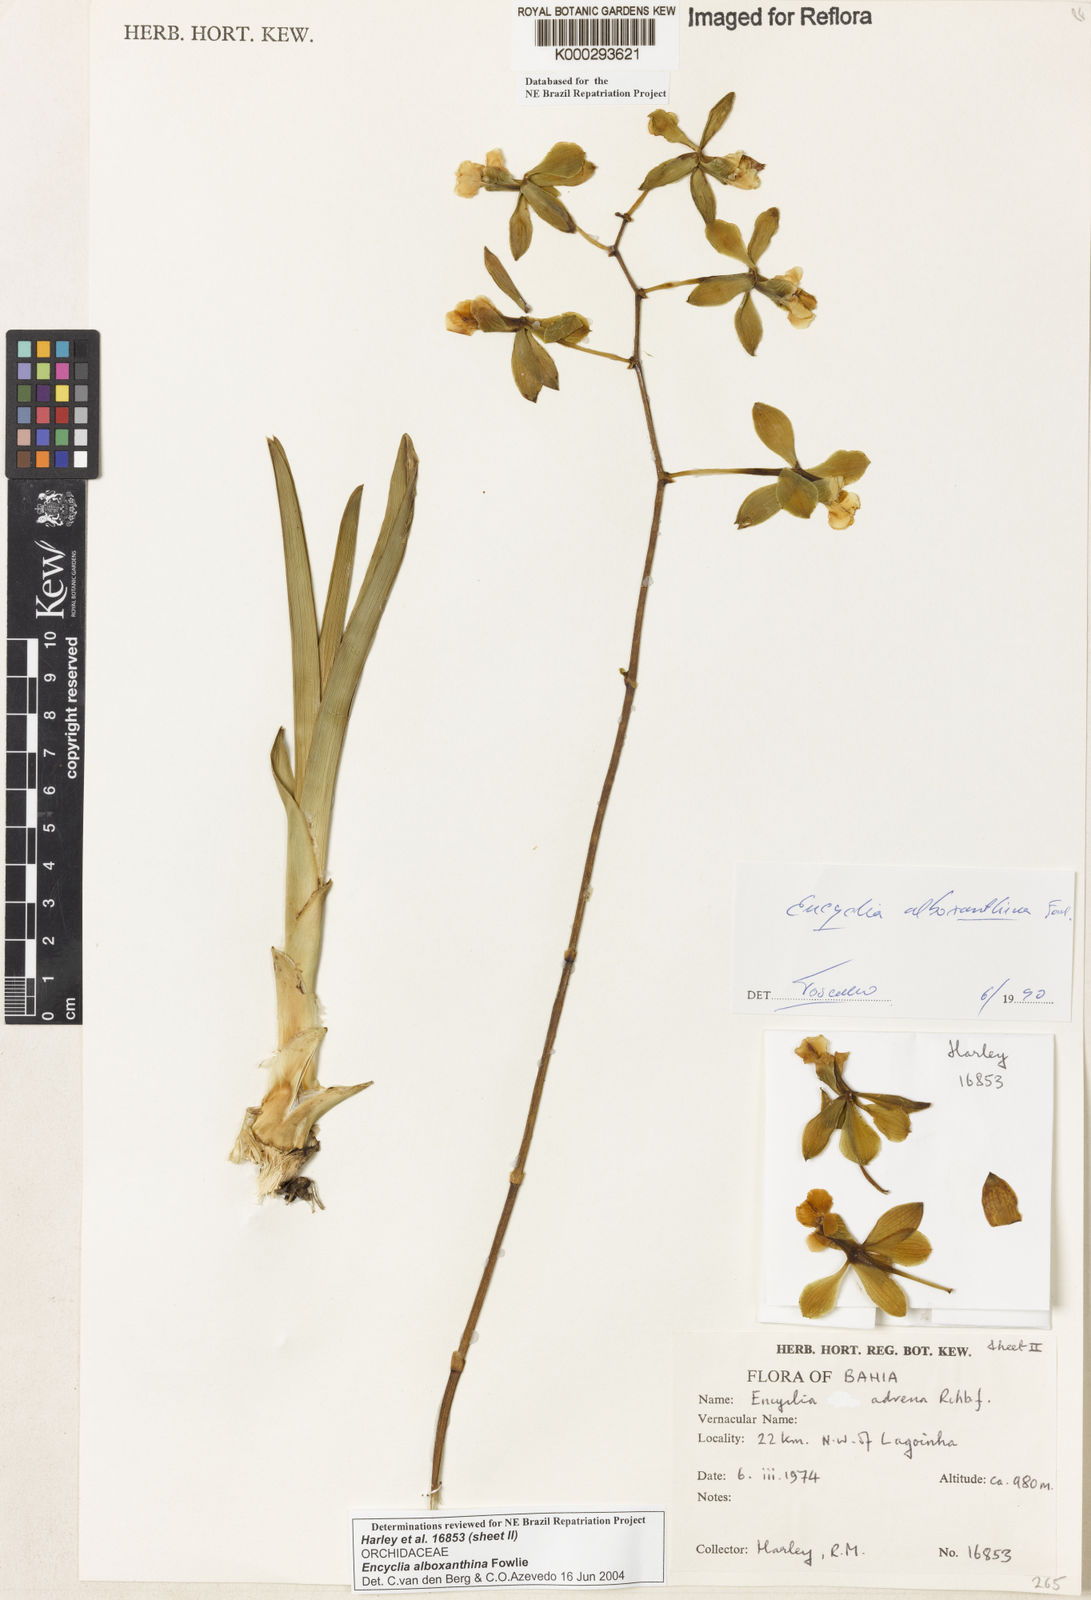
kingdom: Plantae
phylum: Tracheophyta
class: Liliopsida
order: Asparagales
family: Orchidaceae
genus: Encyclia
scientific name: Encyclia alboxanthina
